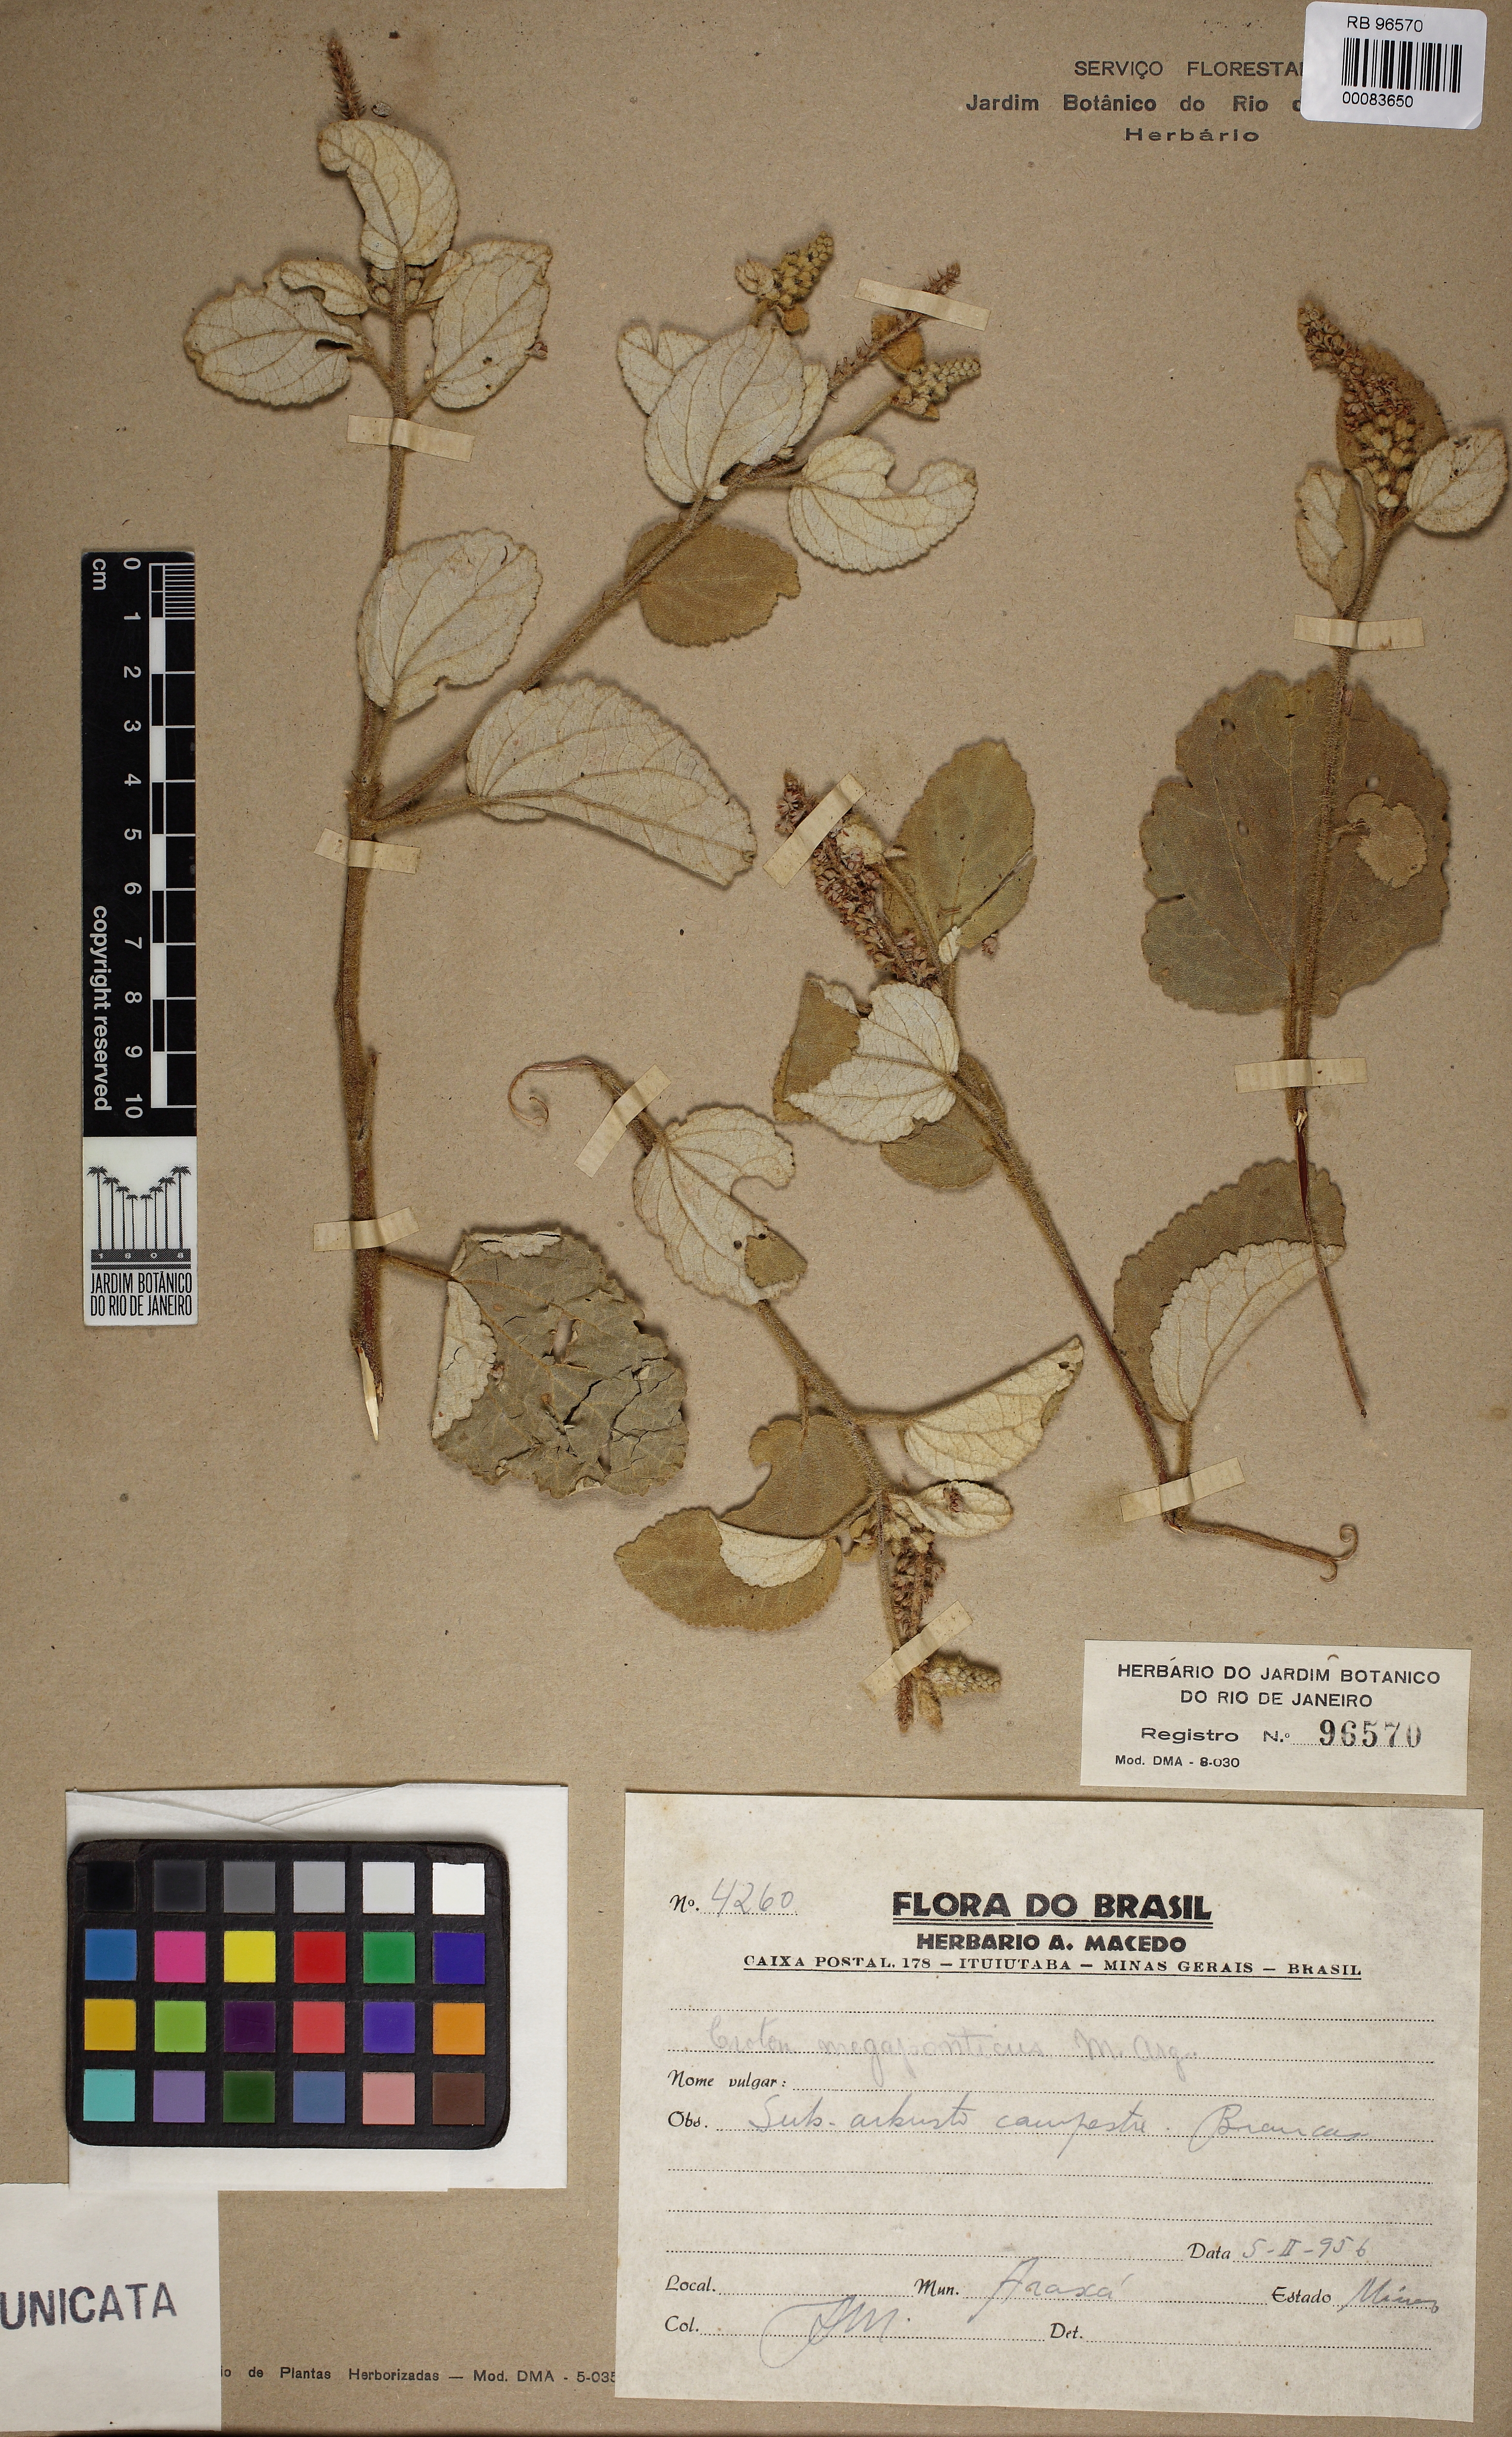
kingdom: Plantae
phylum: Tracheophyta
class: Magnoliopsida
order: Malpighiales
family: Euphorbiaceae
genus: Croton
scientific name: Croton abaitensis
